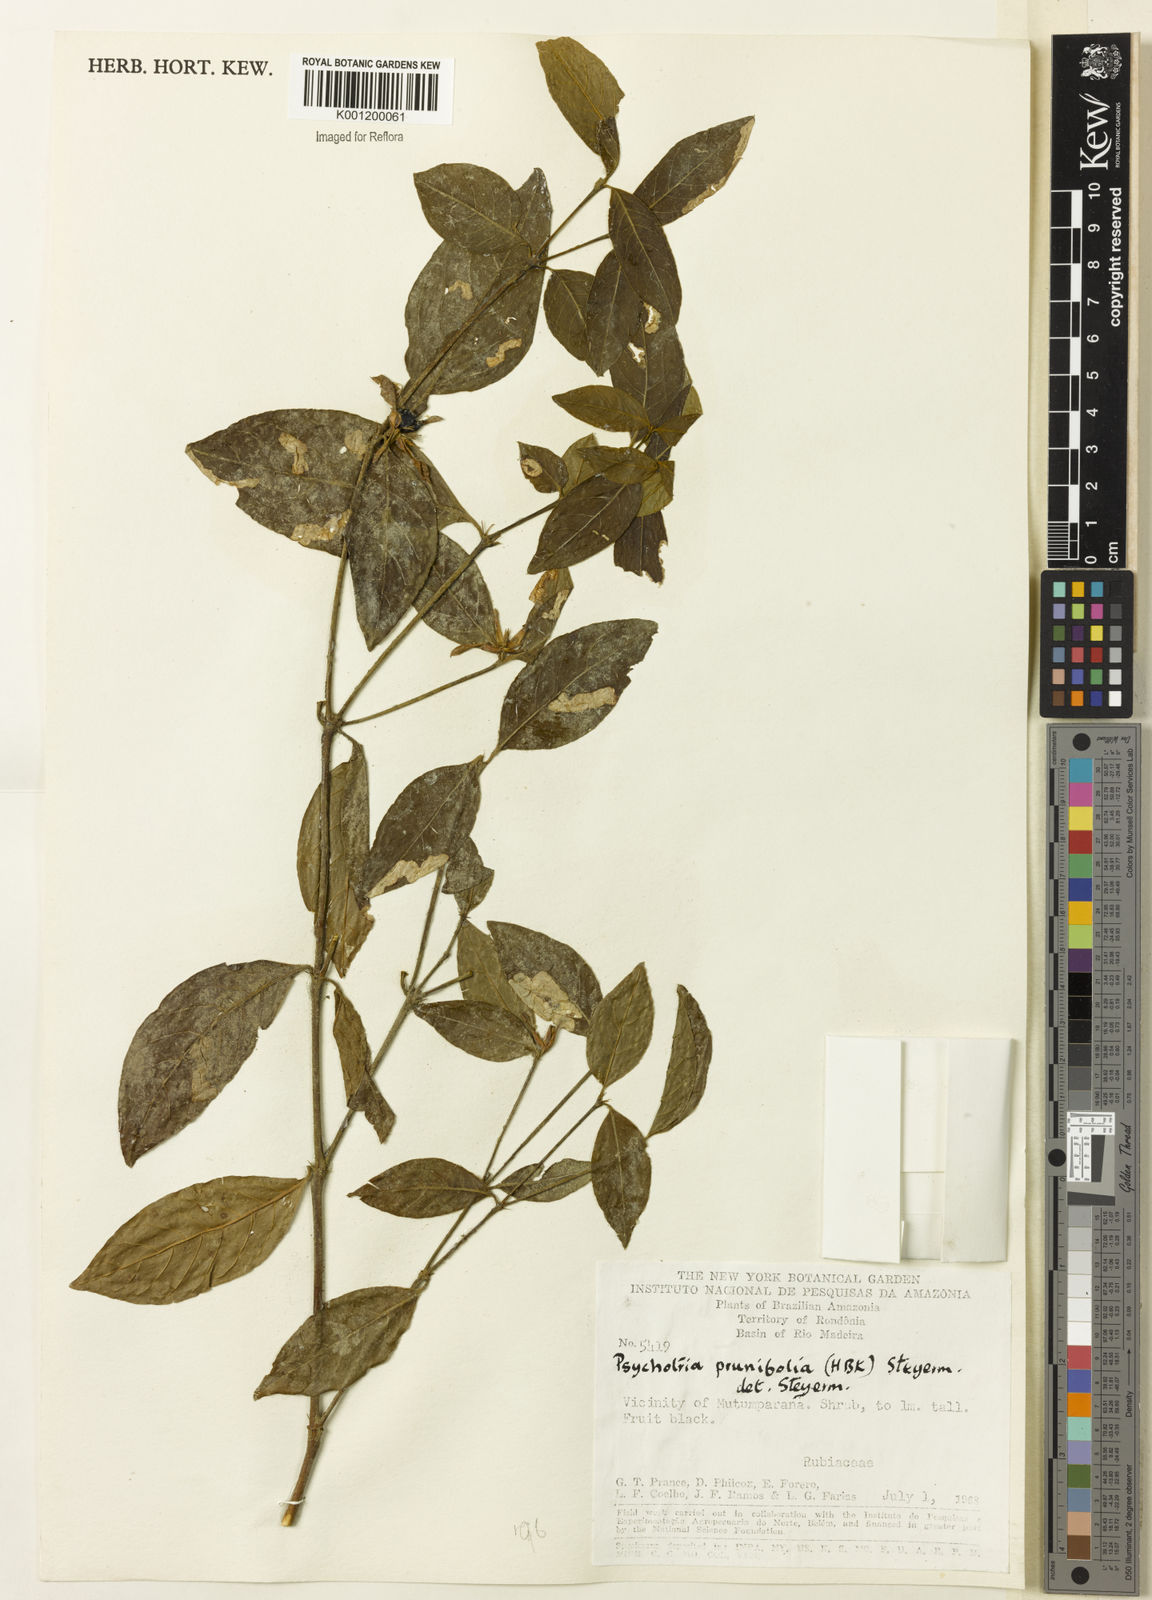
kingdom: Plantae
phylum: Tracheophyta
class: Magnoliopsida
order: Gentianales
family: Rubiaceae
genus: Palicourea
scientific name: Palicourea prunifolia
